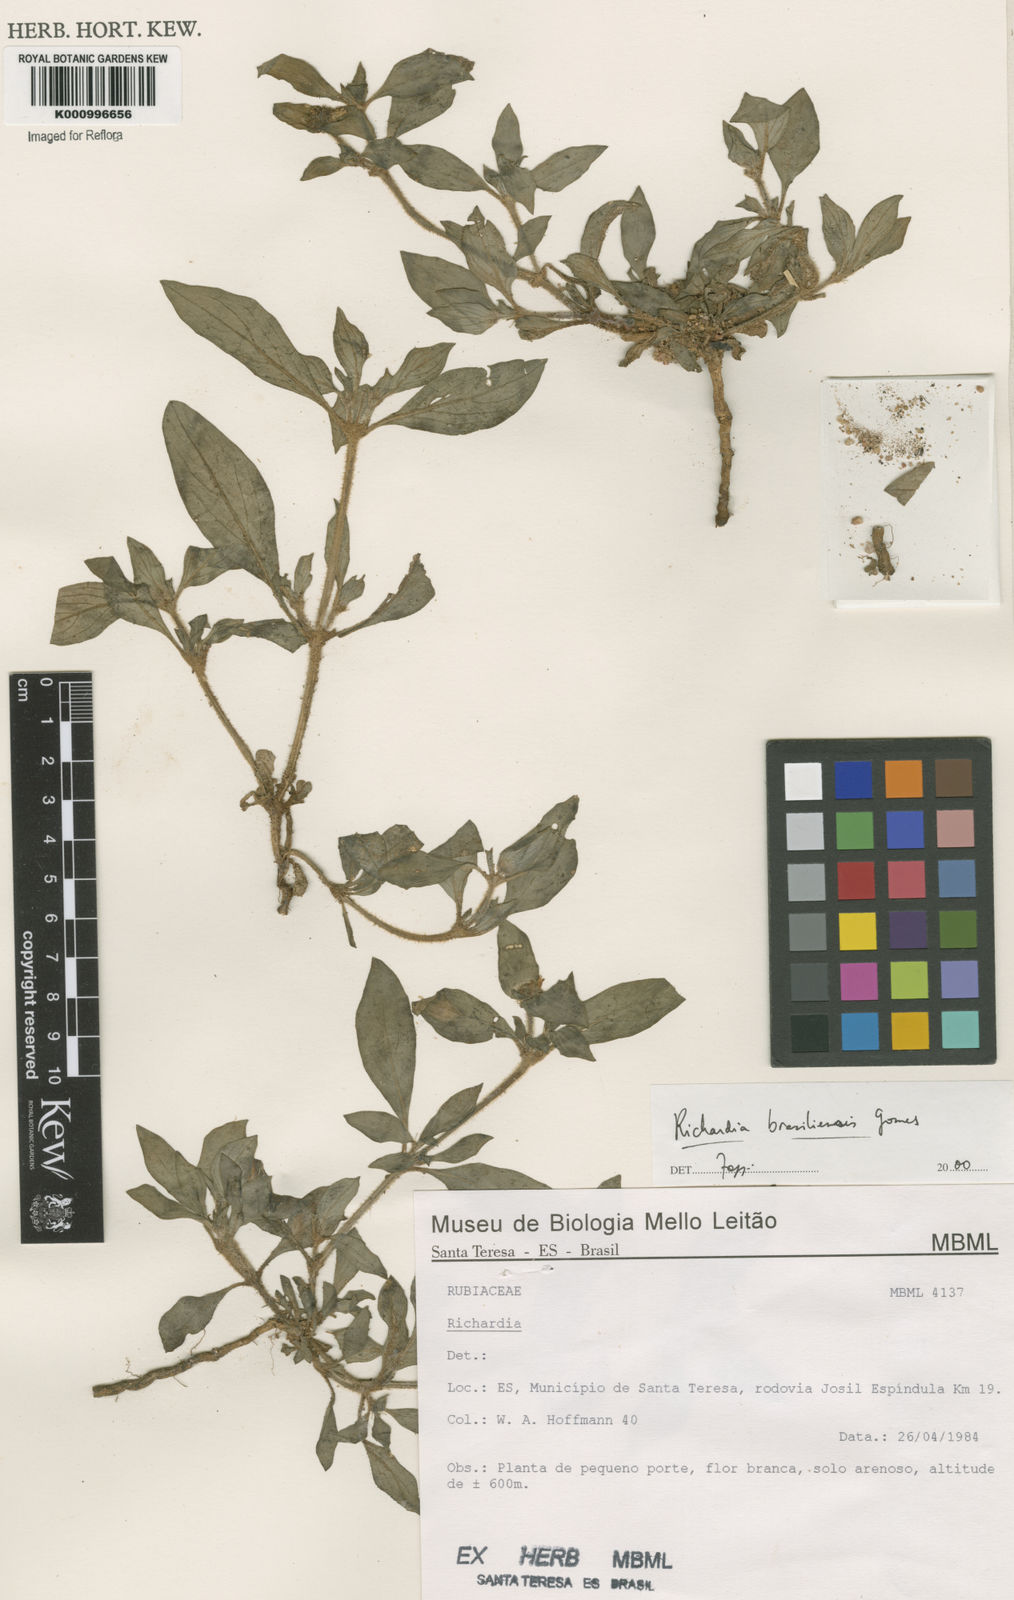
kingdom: Plantae
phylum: Tracheophyta
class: Magnoliopsida
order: Gentianales
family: Rubiaceae
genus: Richardia
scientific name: Richardia brasiliensis
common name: Tropical mexican clover
